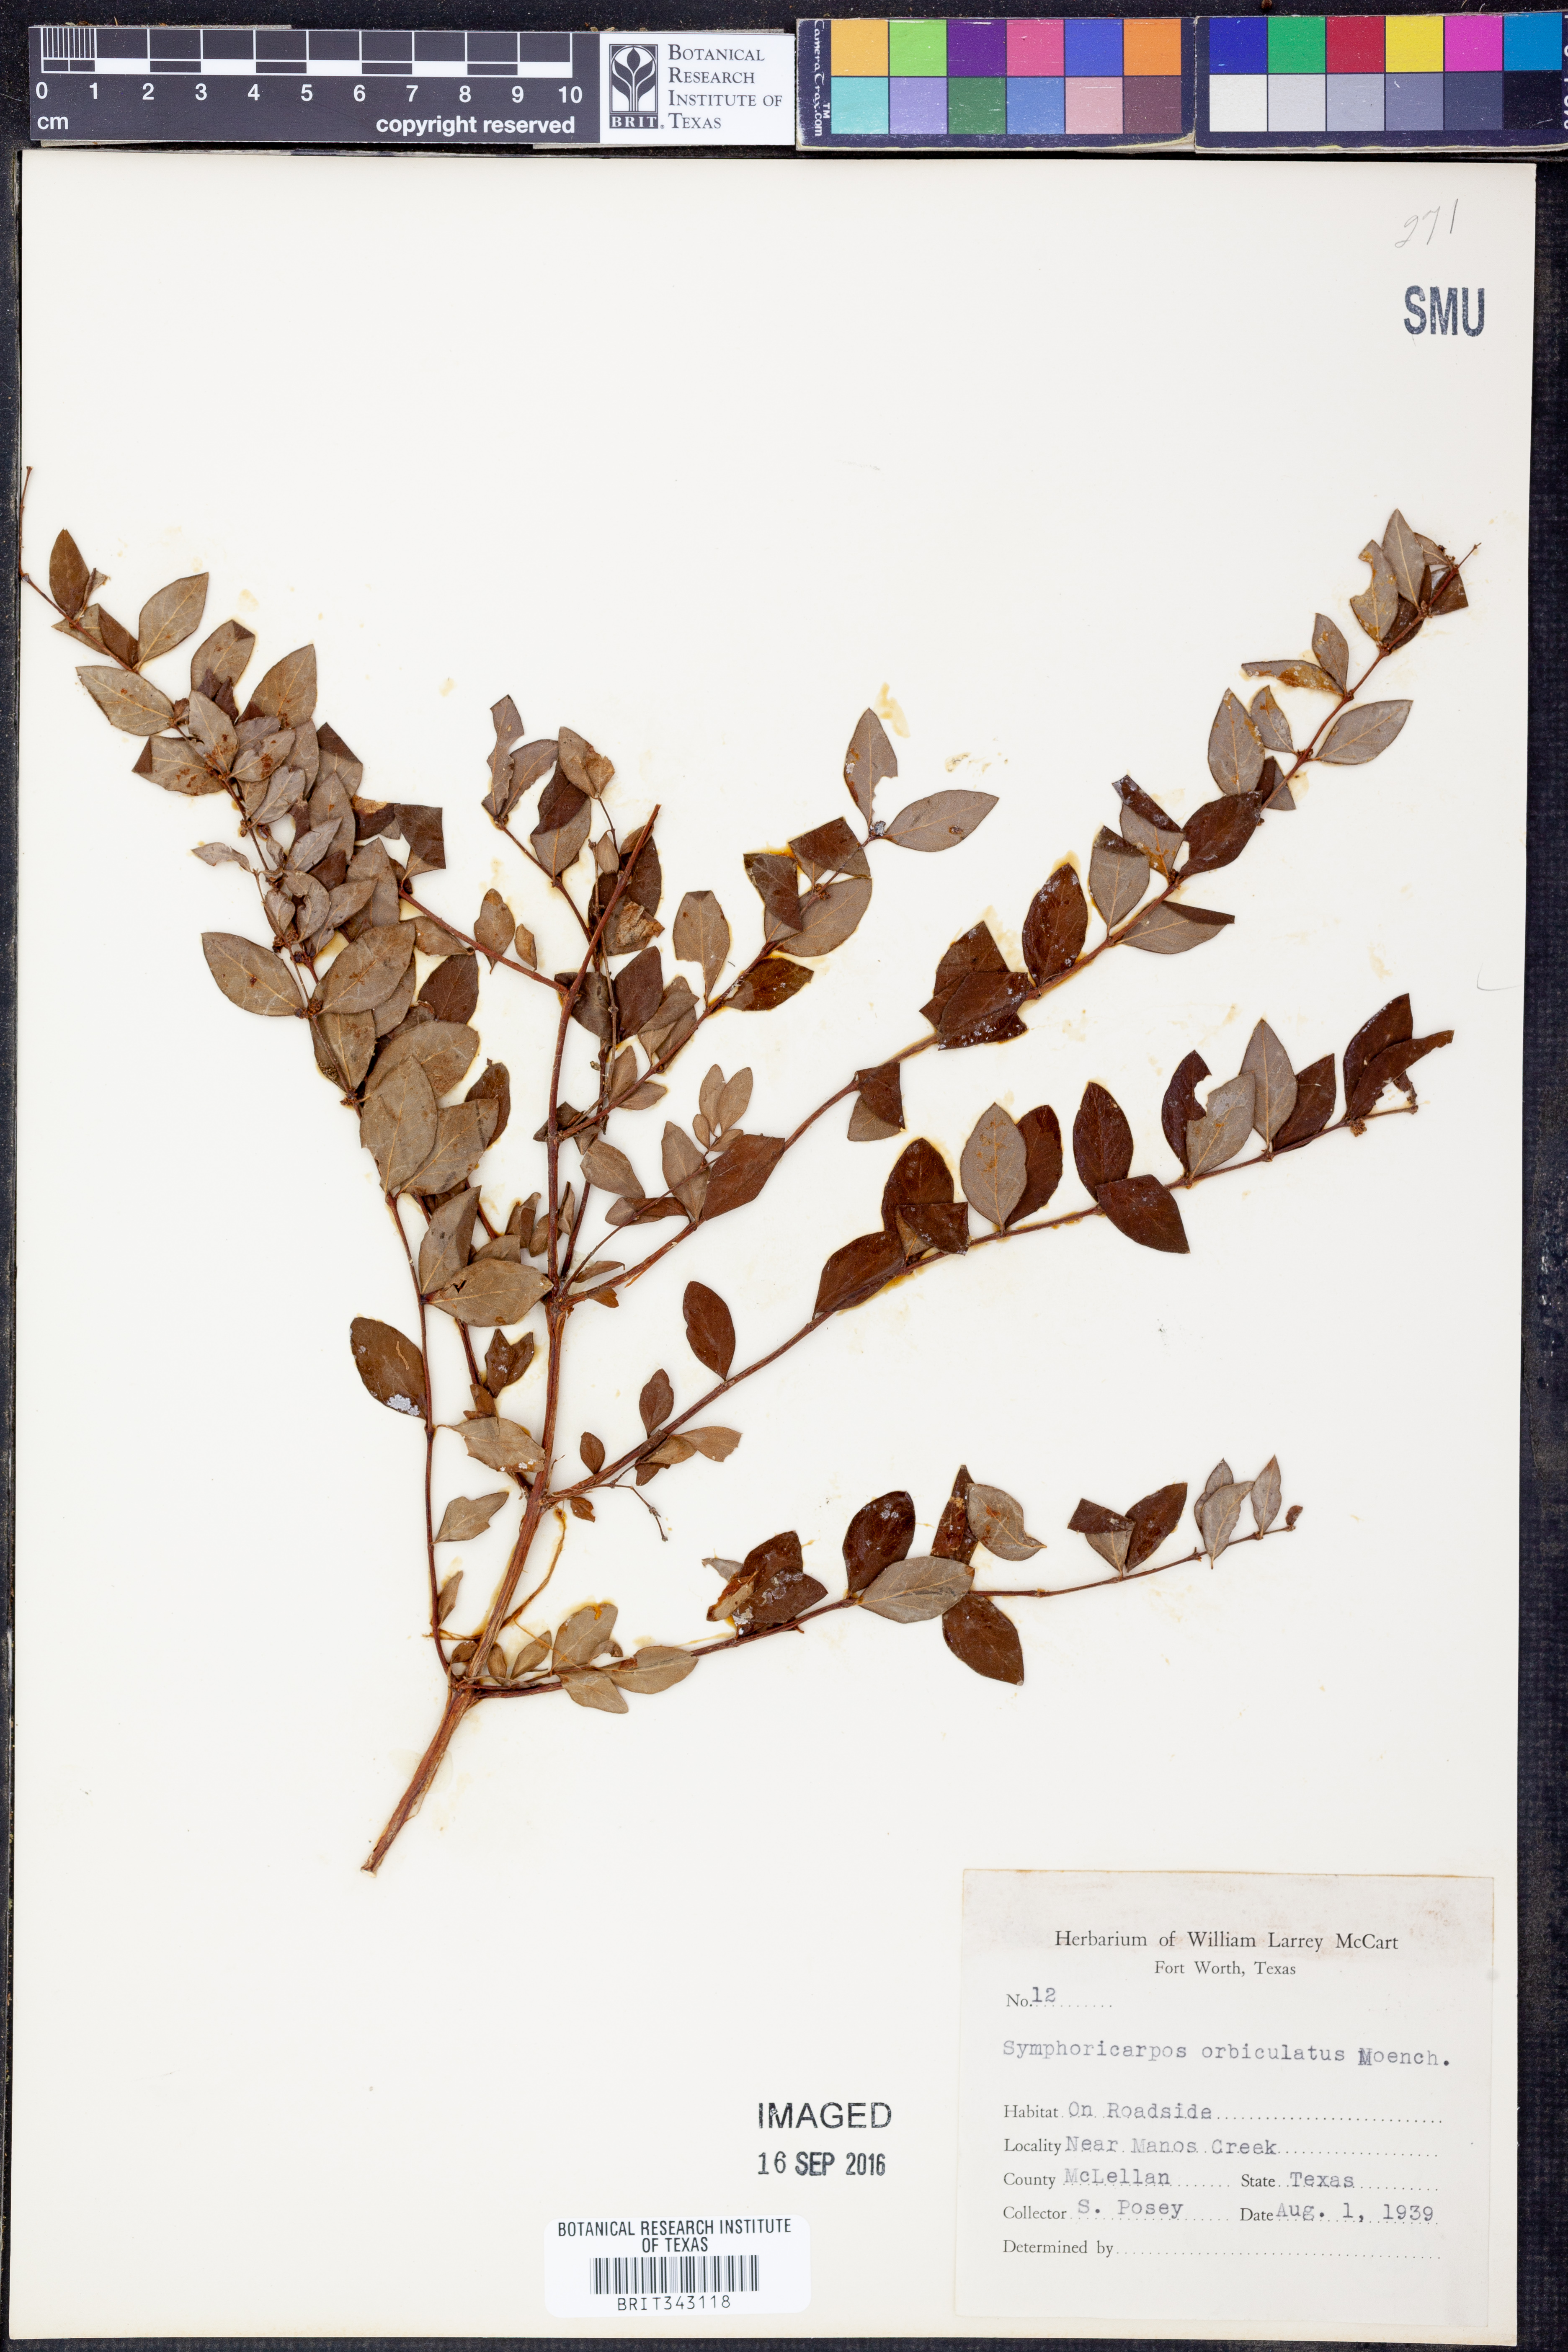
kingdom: Plantae
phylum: Tracheophyta
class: Magnoliopsida
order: Dipsacales
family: Caprifoliaceae
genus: Symphoricarpos
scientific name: Symphoricarpos orbiculatus
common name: Coralberry
